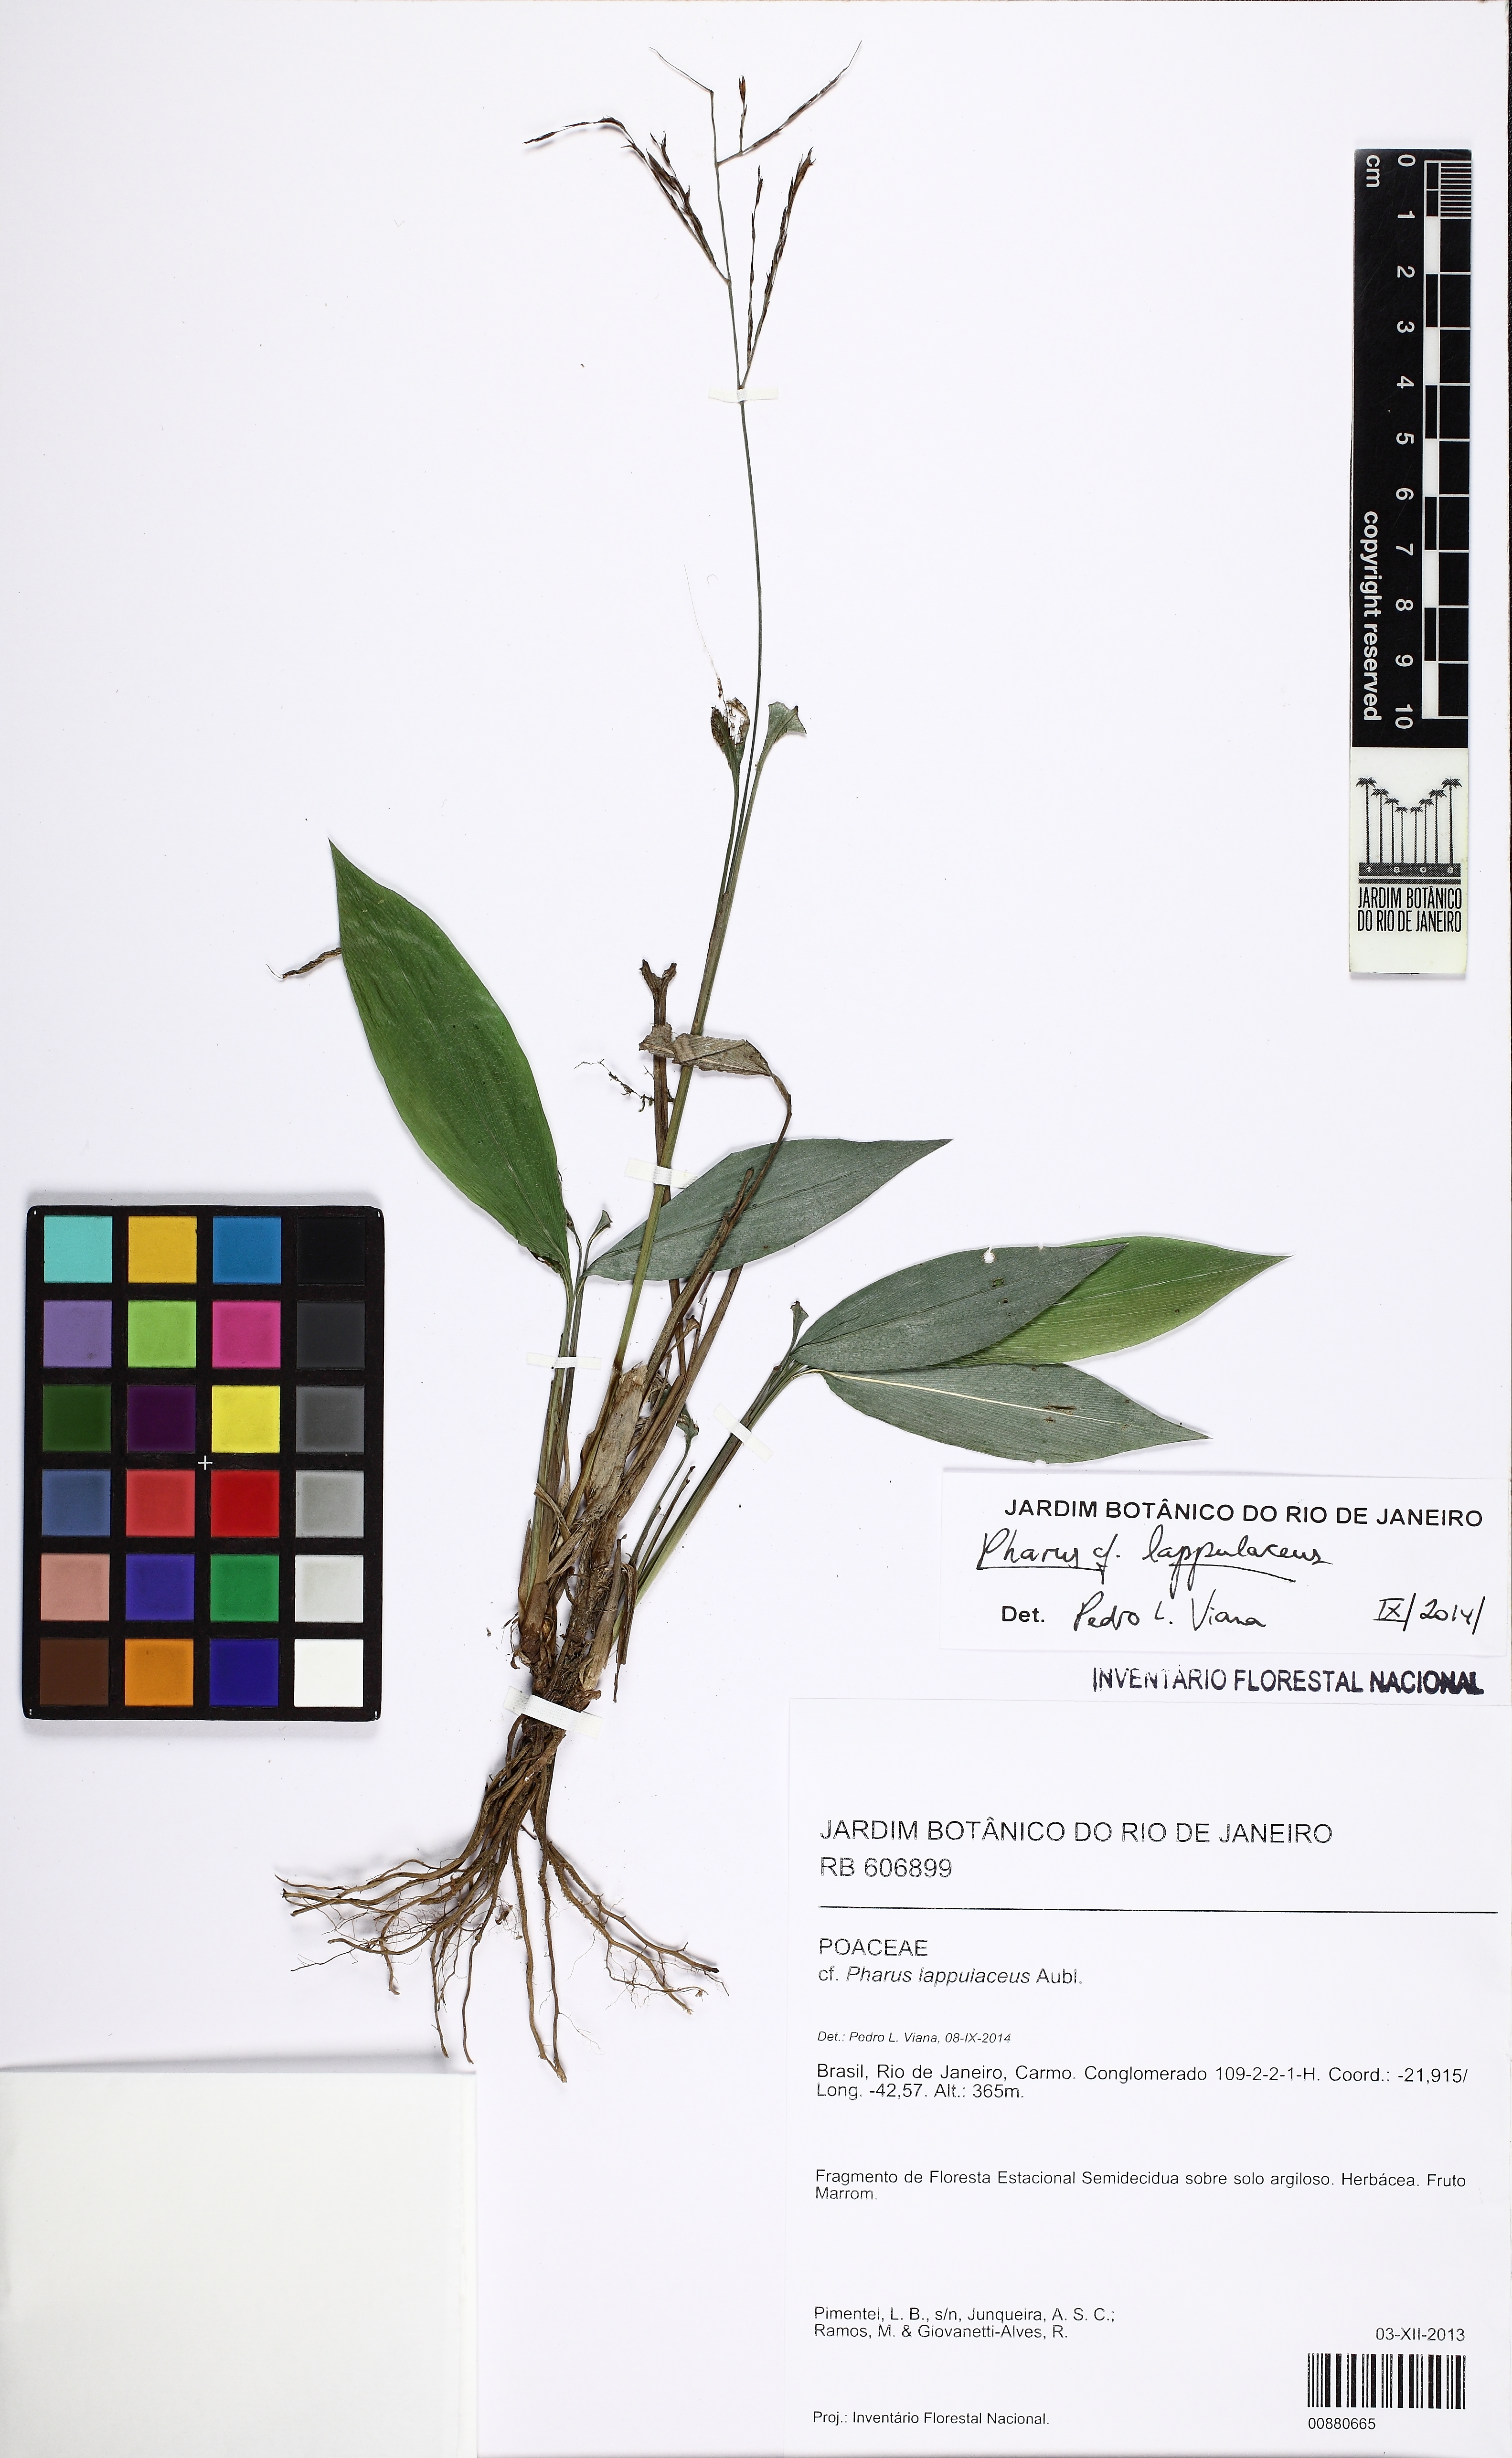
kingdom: Plantae
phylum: Tracheophyta
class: Liliopsida
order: Poales
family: Poaceae
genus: Pharus
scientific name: Pharus lappulaceus
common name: Creeping leafstalk grass
